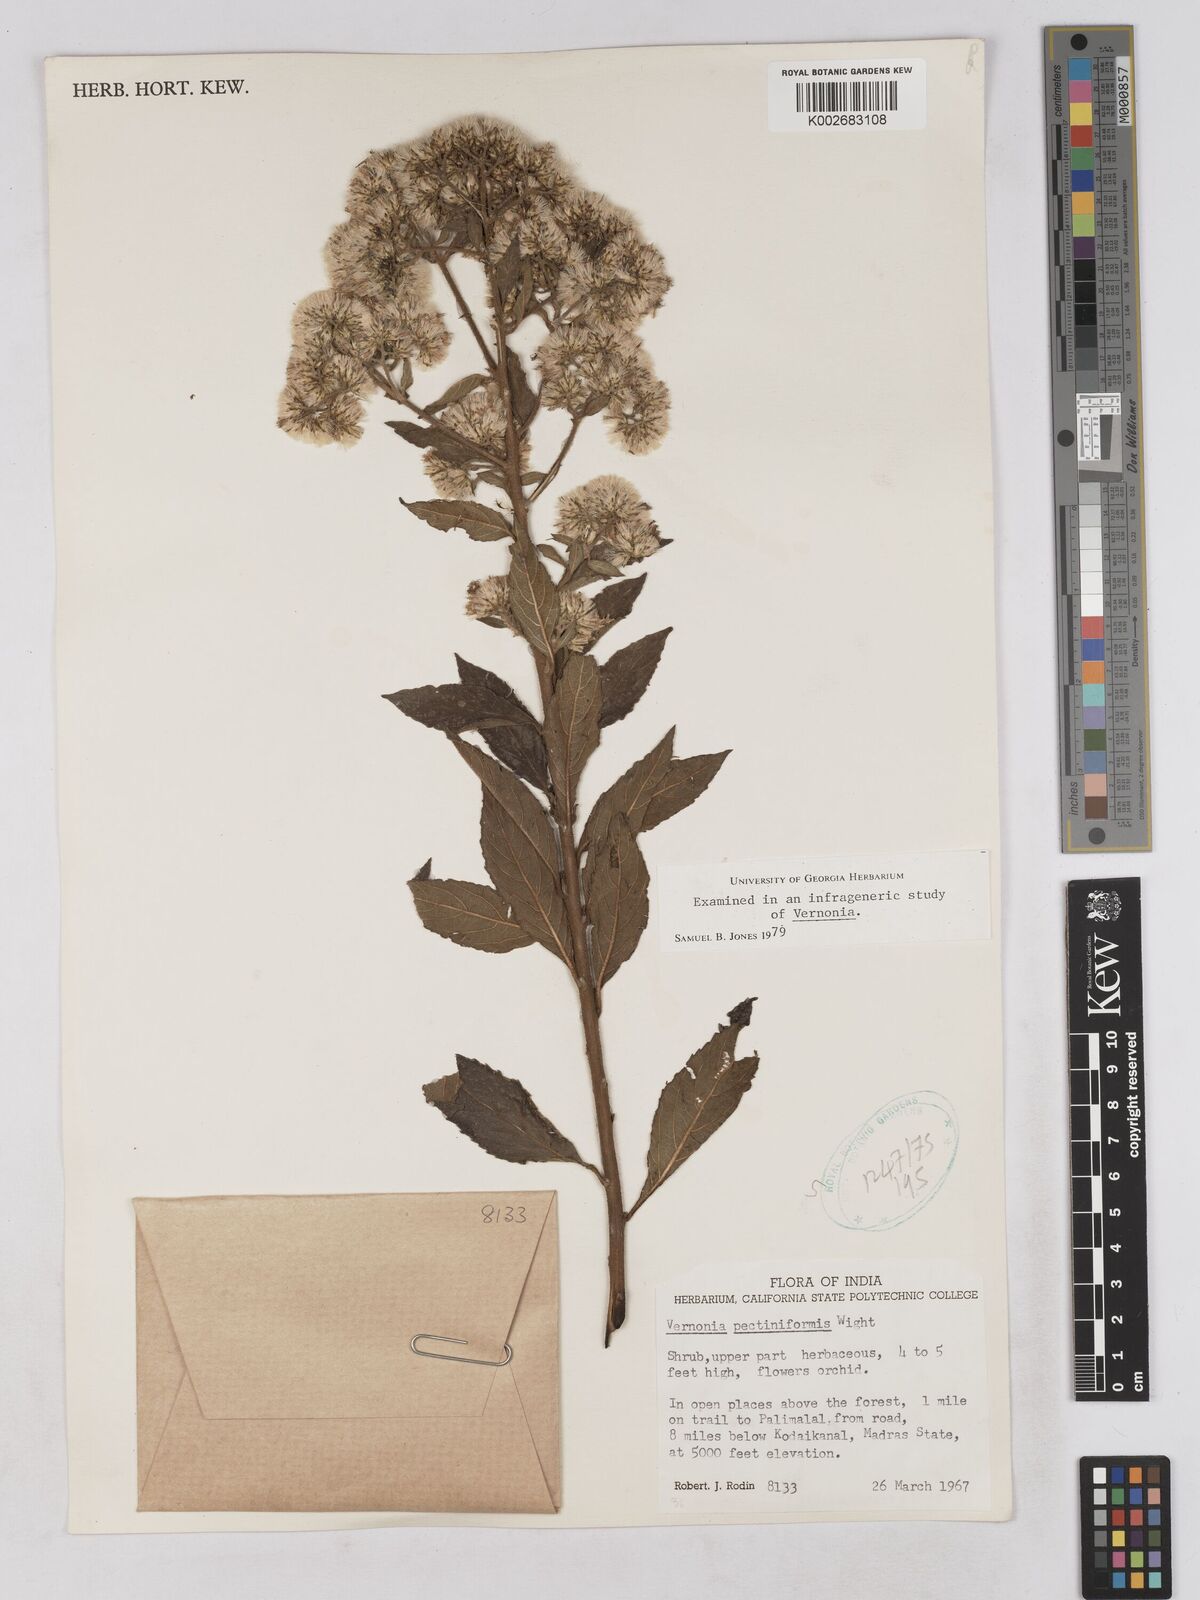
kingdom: Plantae
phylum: Tracheophyta
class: Magnoliopsida
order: Asterales
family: Asteraceae
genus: Gymnanthemum
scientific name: Gymnanthemum pectiniforme
